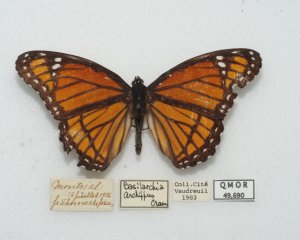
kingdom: Animalia
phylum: Arthropoda
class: Insecta
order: Lepidoptera
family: Nymphalidae
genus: Limenitis
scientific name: Limenitis archippus
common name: Viceroy
